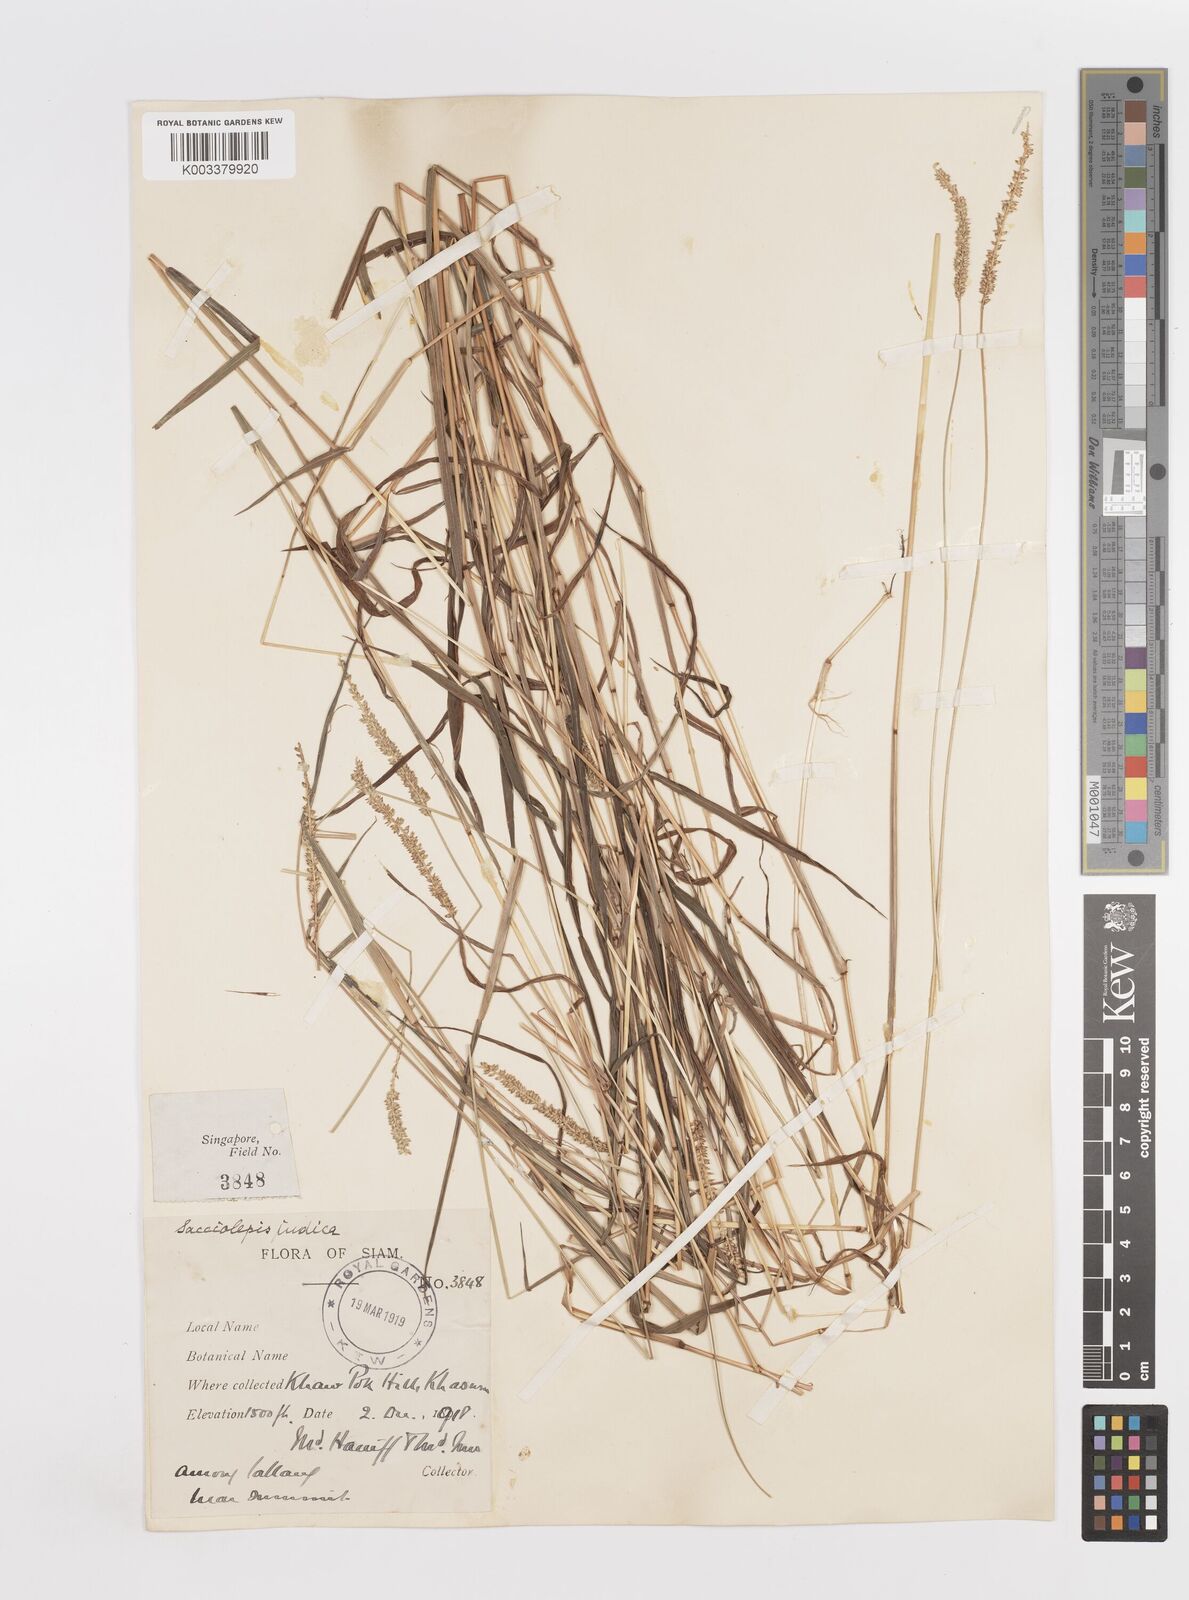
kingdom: Plantae
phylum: Tracheophyta
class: Liliopsida
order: Poales
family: Poaceae
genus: Sacciolepis
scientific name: Sacciolepis indica
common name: Glenwoodgrass
